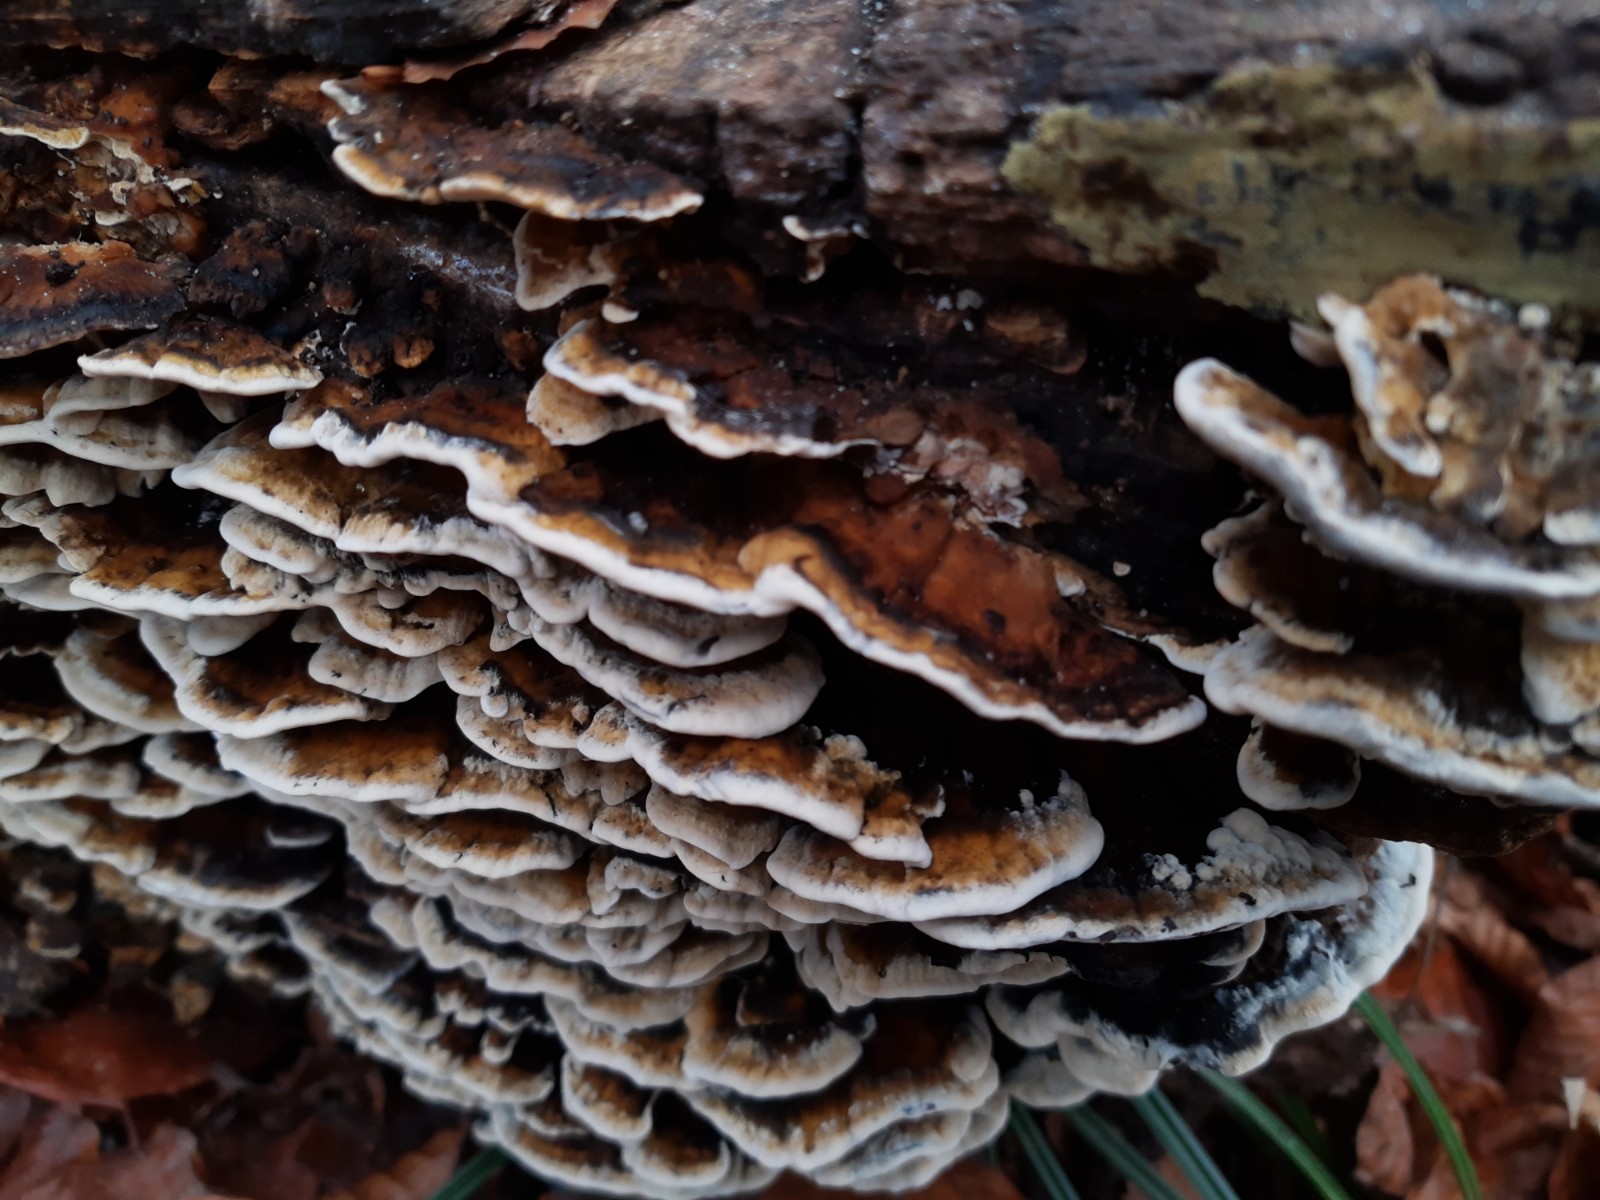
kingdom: Fungi
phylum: Basidiomycota
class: Agaricomycetes
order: Polyporales
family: Phanerochaetaceae
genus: Bjerkandera
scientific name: Bjerkandera adusta
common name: sveden sodporesvamp
